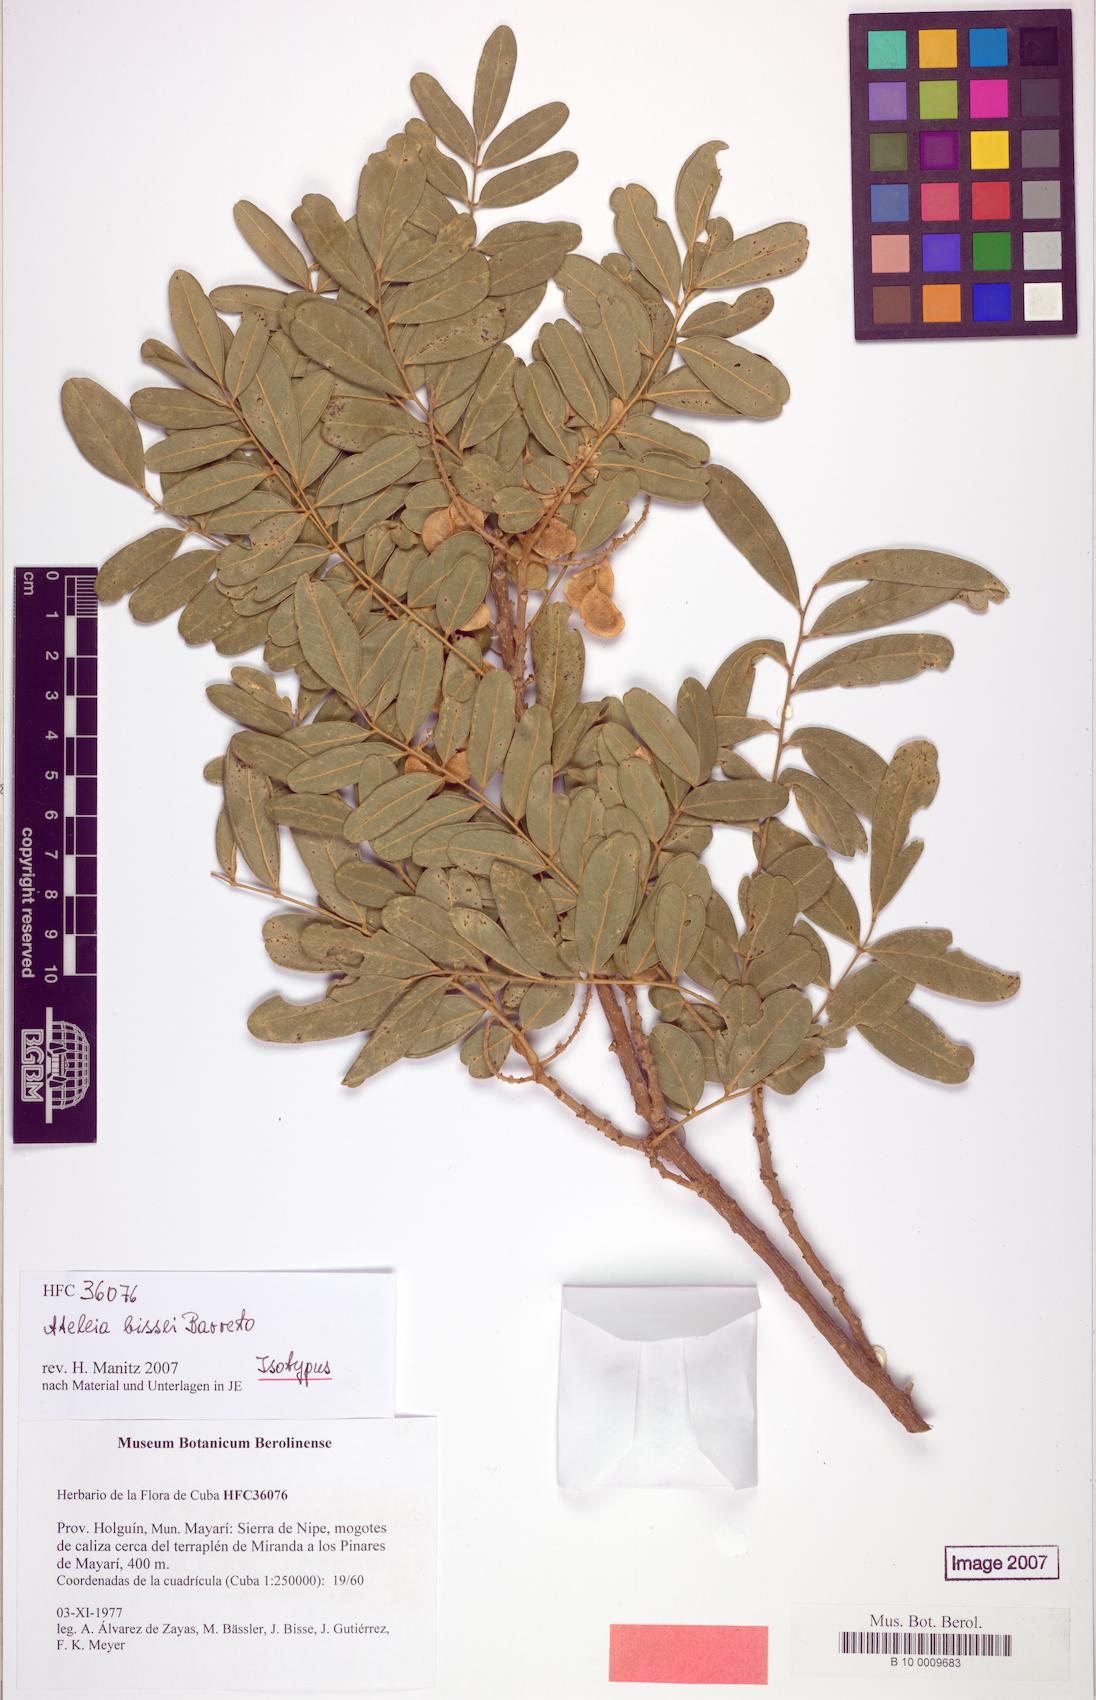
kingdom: Plantae
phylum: Tracheophyta
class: Magnoliopsida
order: Fabales
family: Fabaceae
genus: Ateleia
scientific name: Ateleia cubensis
